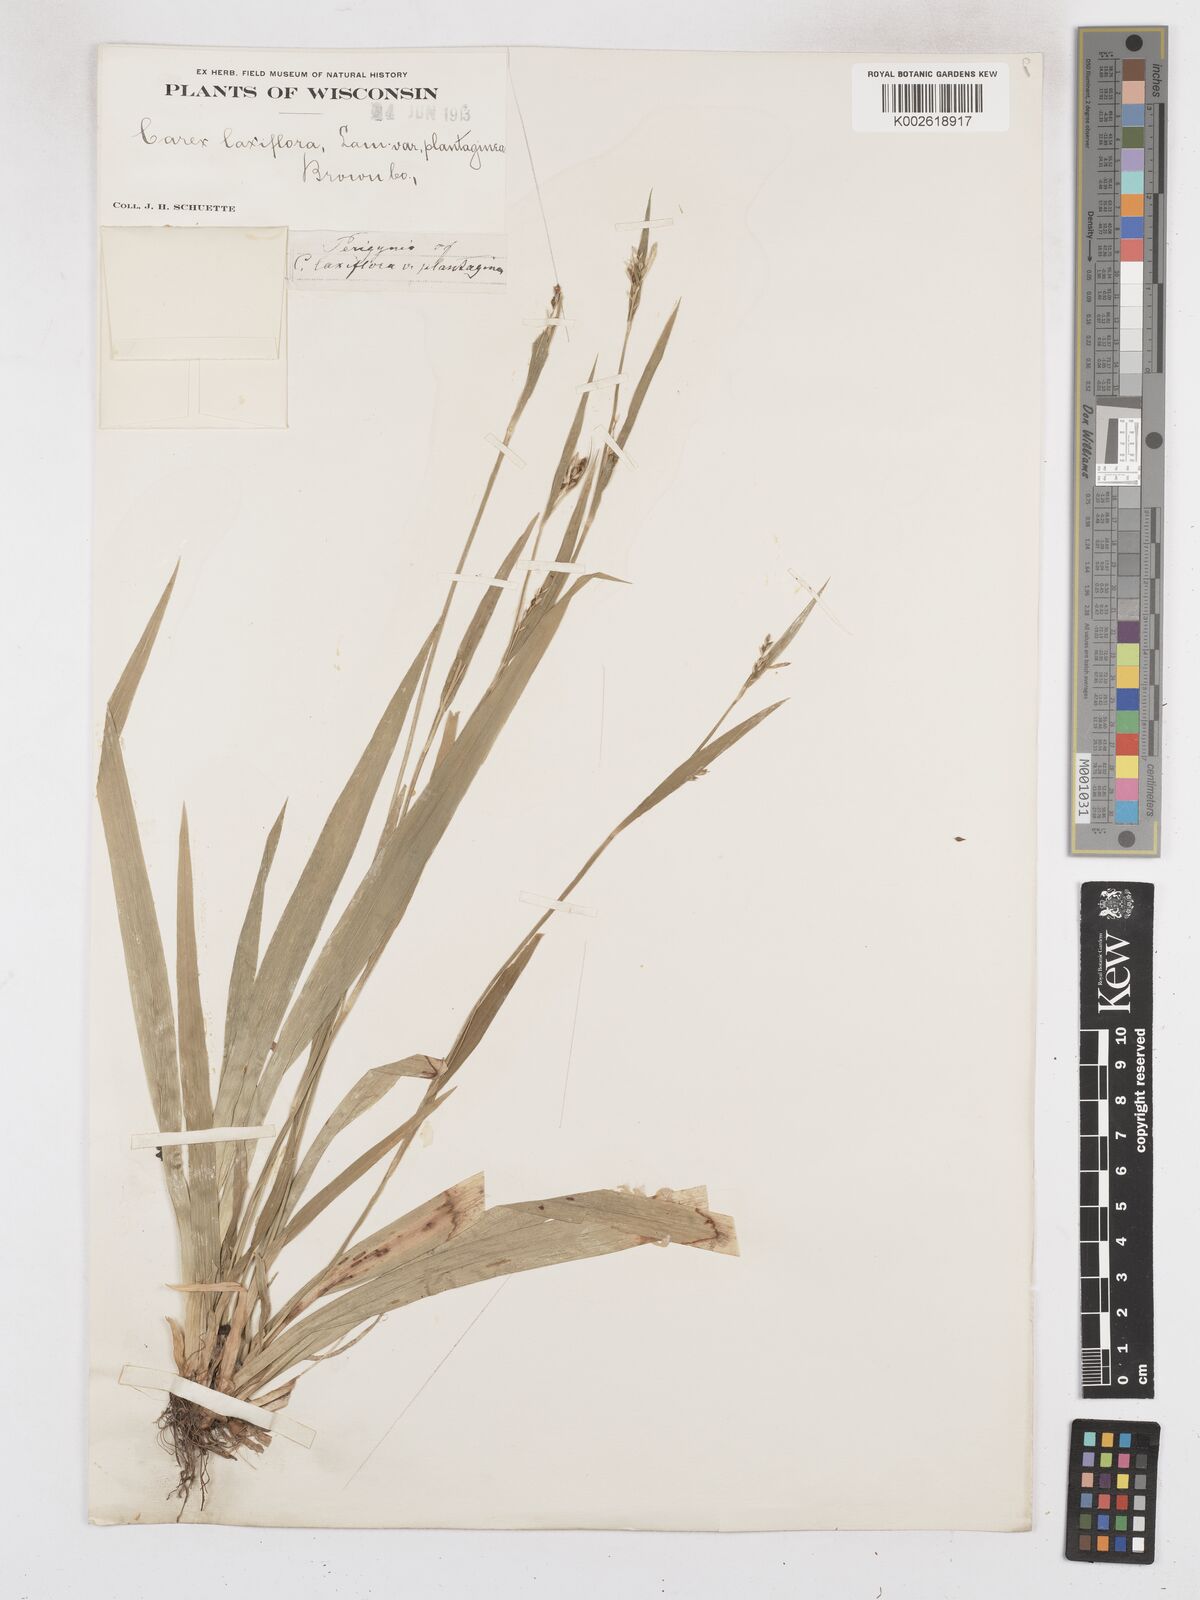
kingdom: Plantae
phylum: Tracheophyta
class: Liliopsida
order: Poales
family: Cyperaceae
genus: Carex
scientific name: Carex laxiflora
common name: Beech wood sedge
